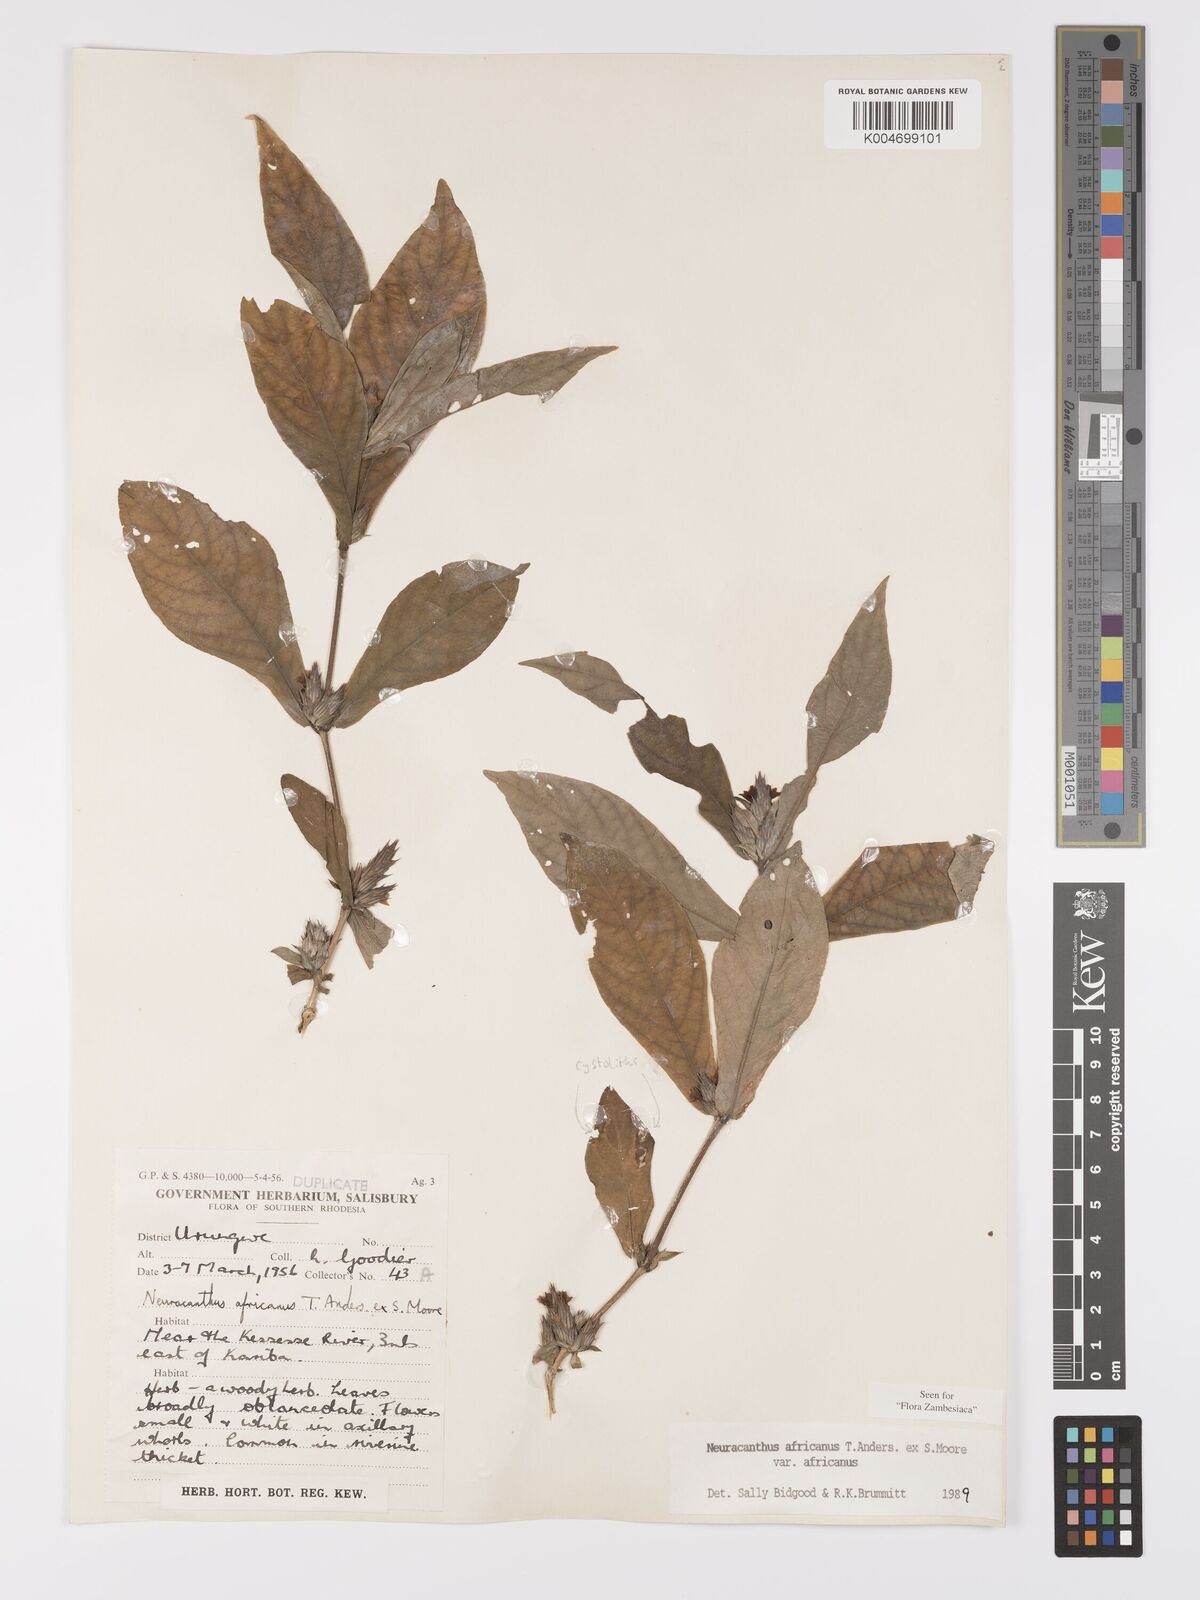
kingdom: Plantae
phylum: Tracheophyta
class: Magnoliopsida
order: Lamiales
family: Acanthaceae
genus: Neuracanthus
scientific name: Neuracanthus africanus
